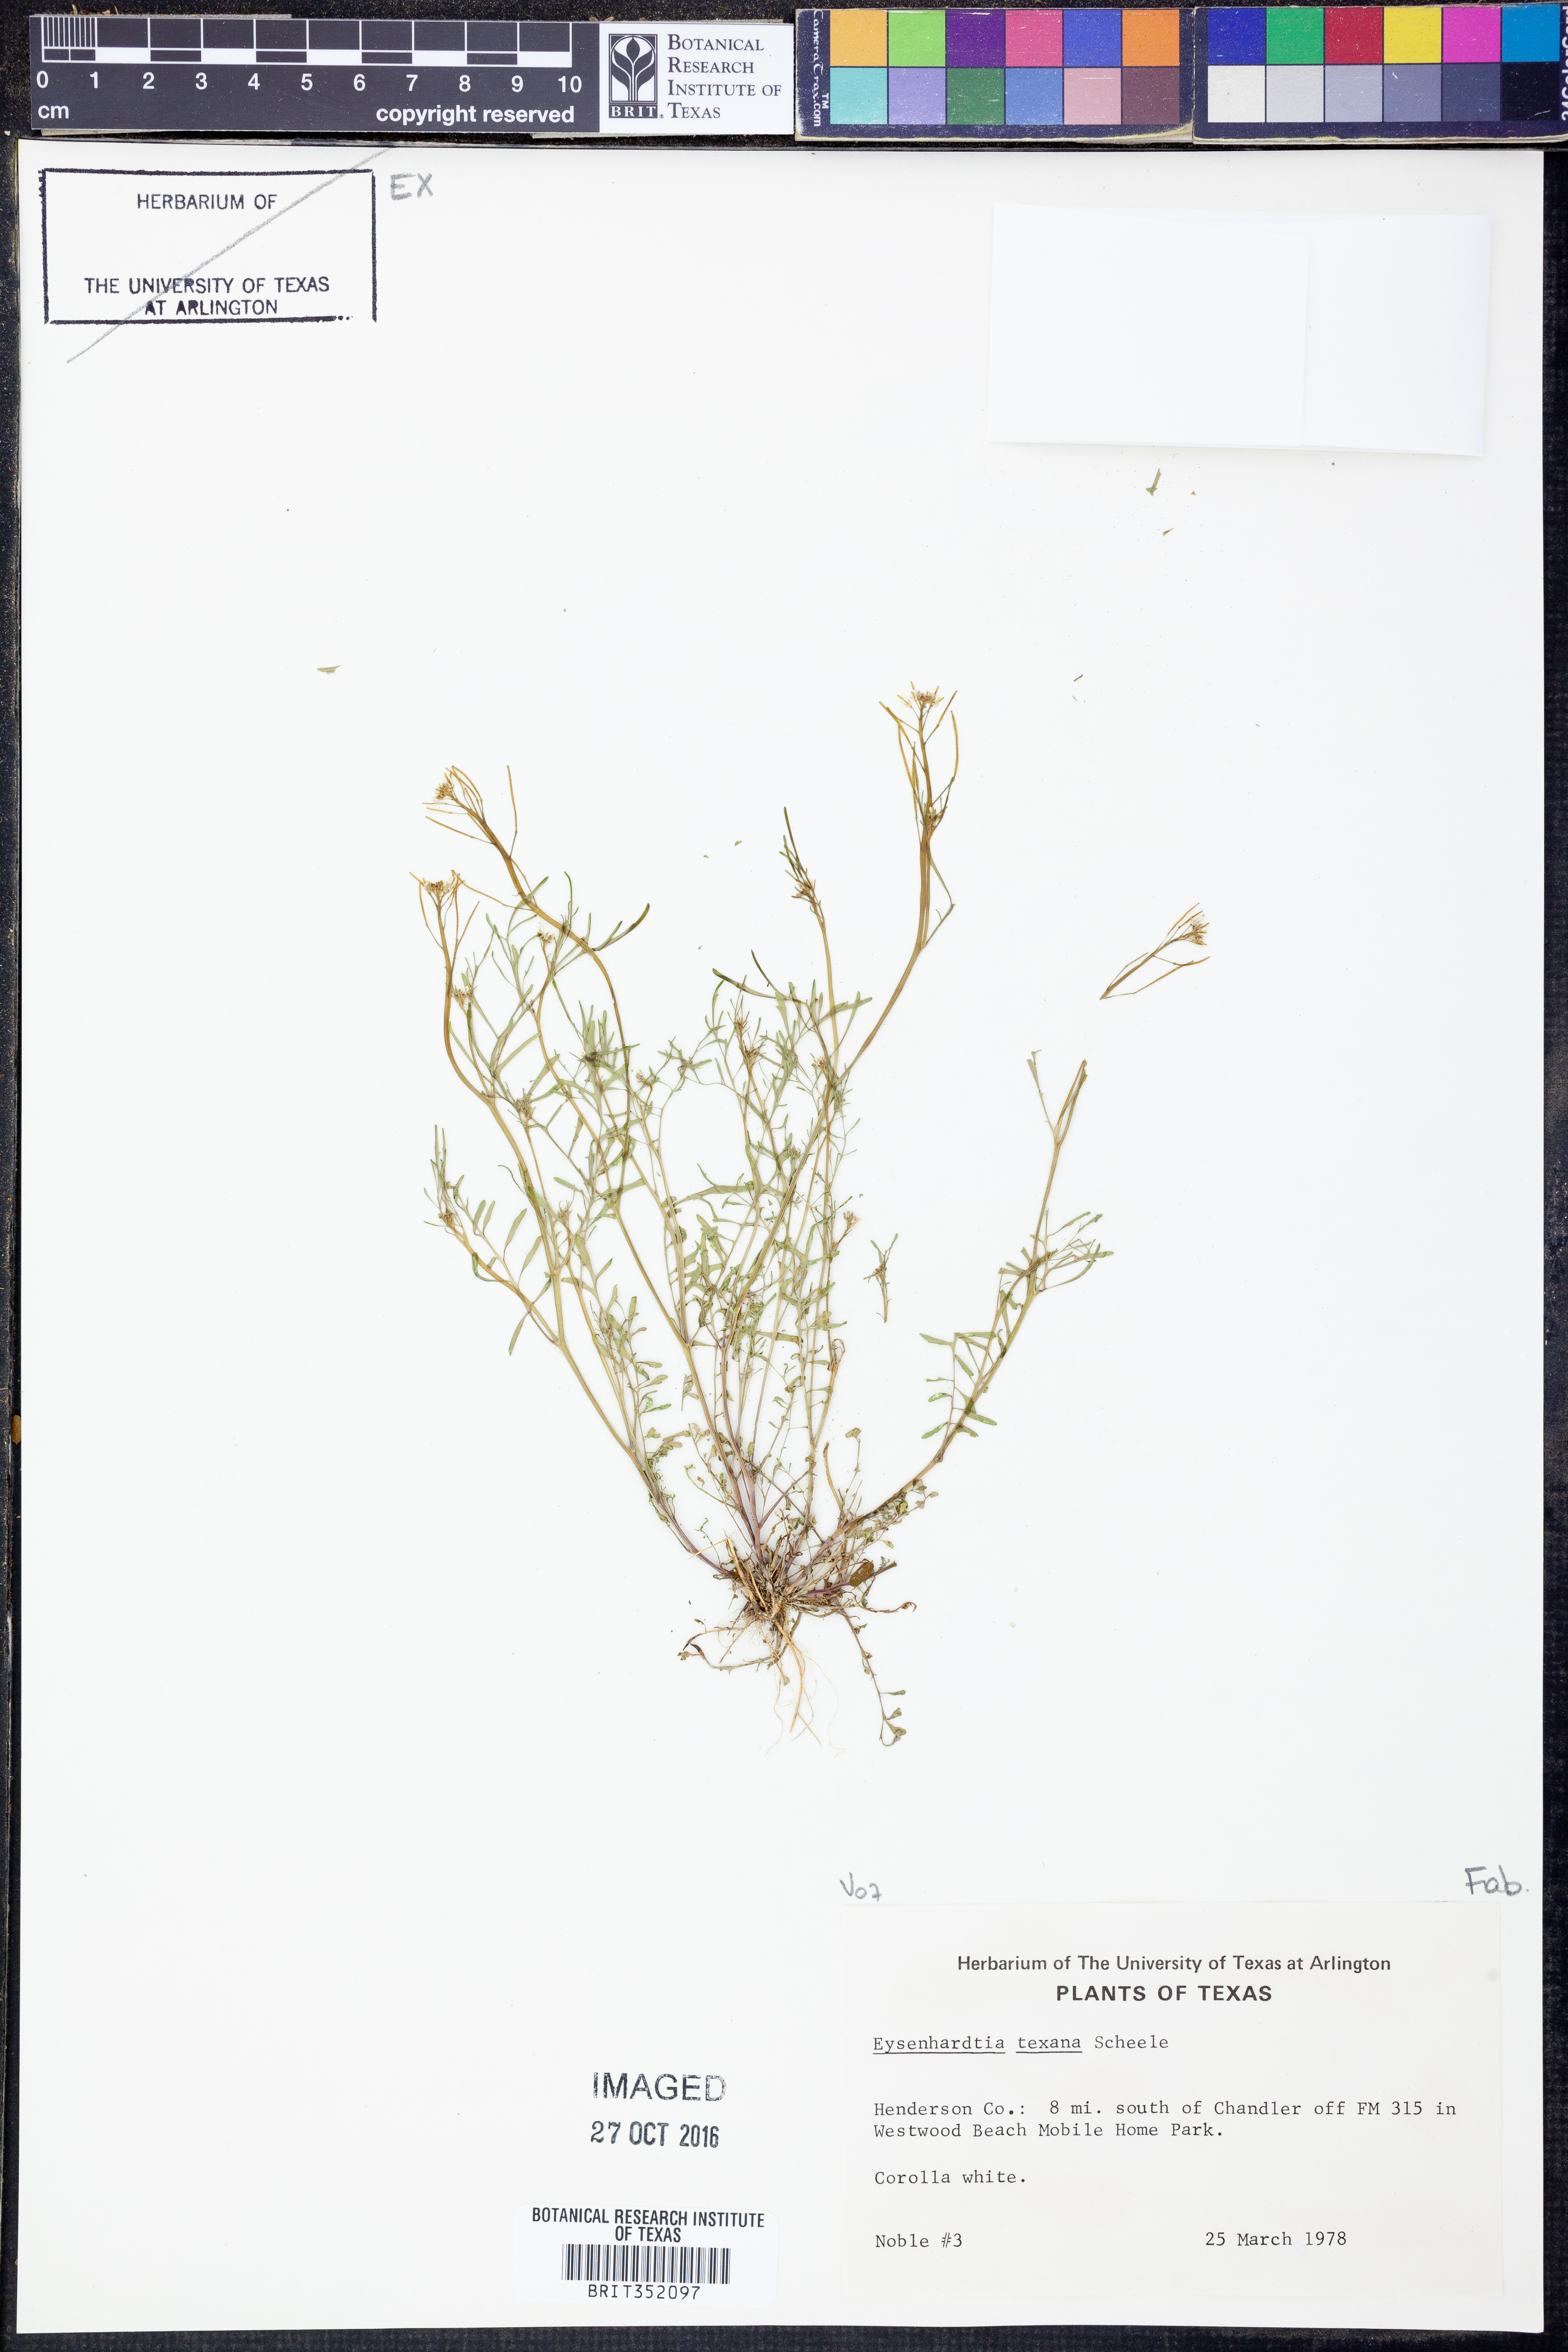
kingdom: Plantae
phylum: Tracheophyta
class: Magnoliopsida
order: Fabales
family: Fabaceae
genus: Eysenhardtia
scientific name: Eysenhardtia texana
